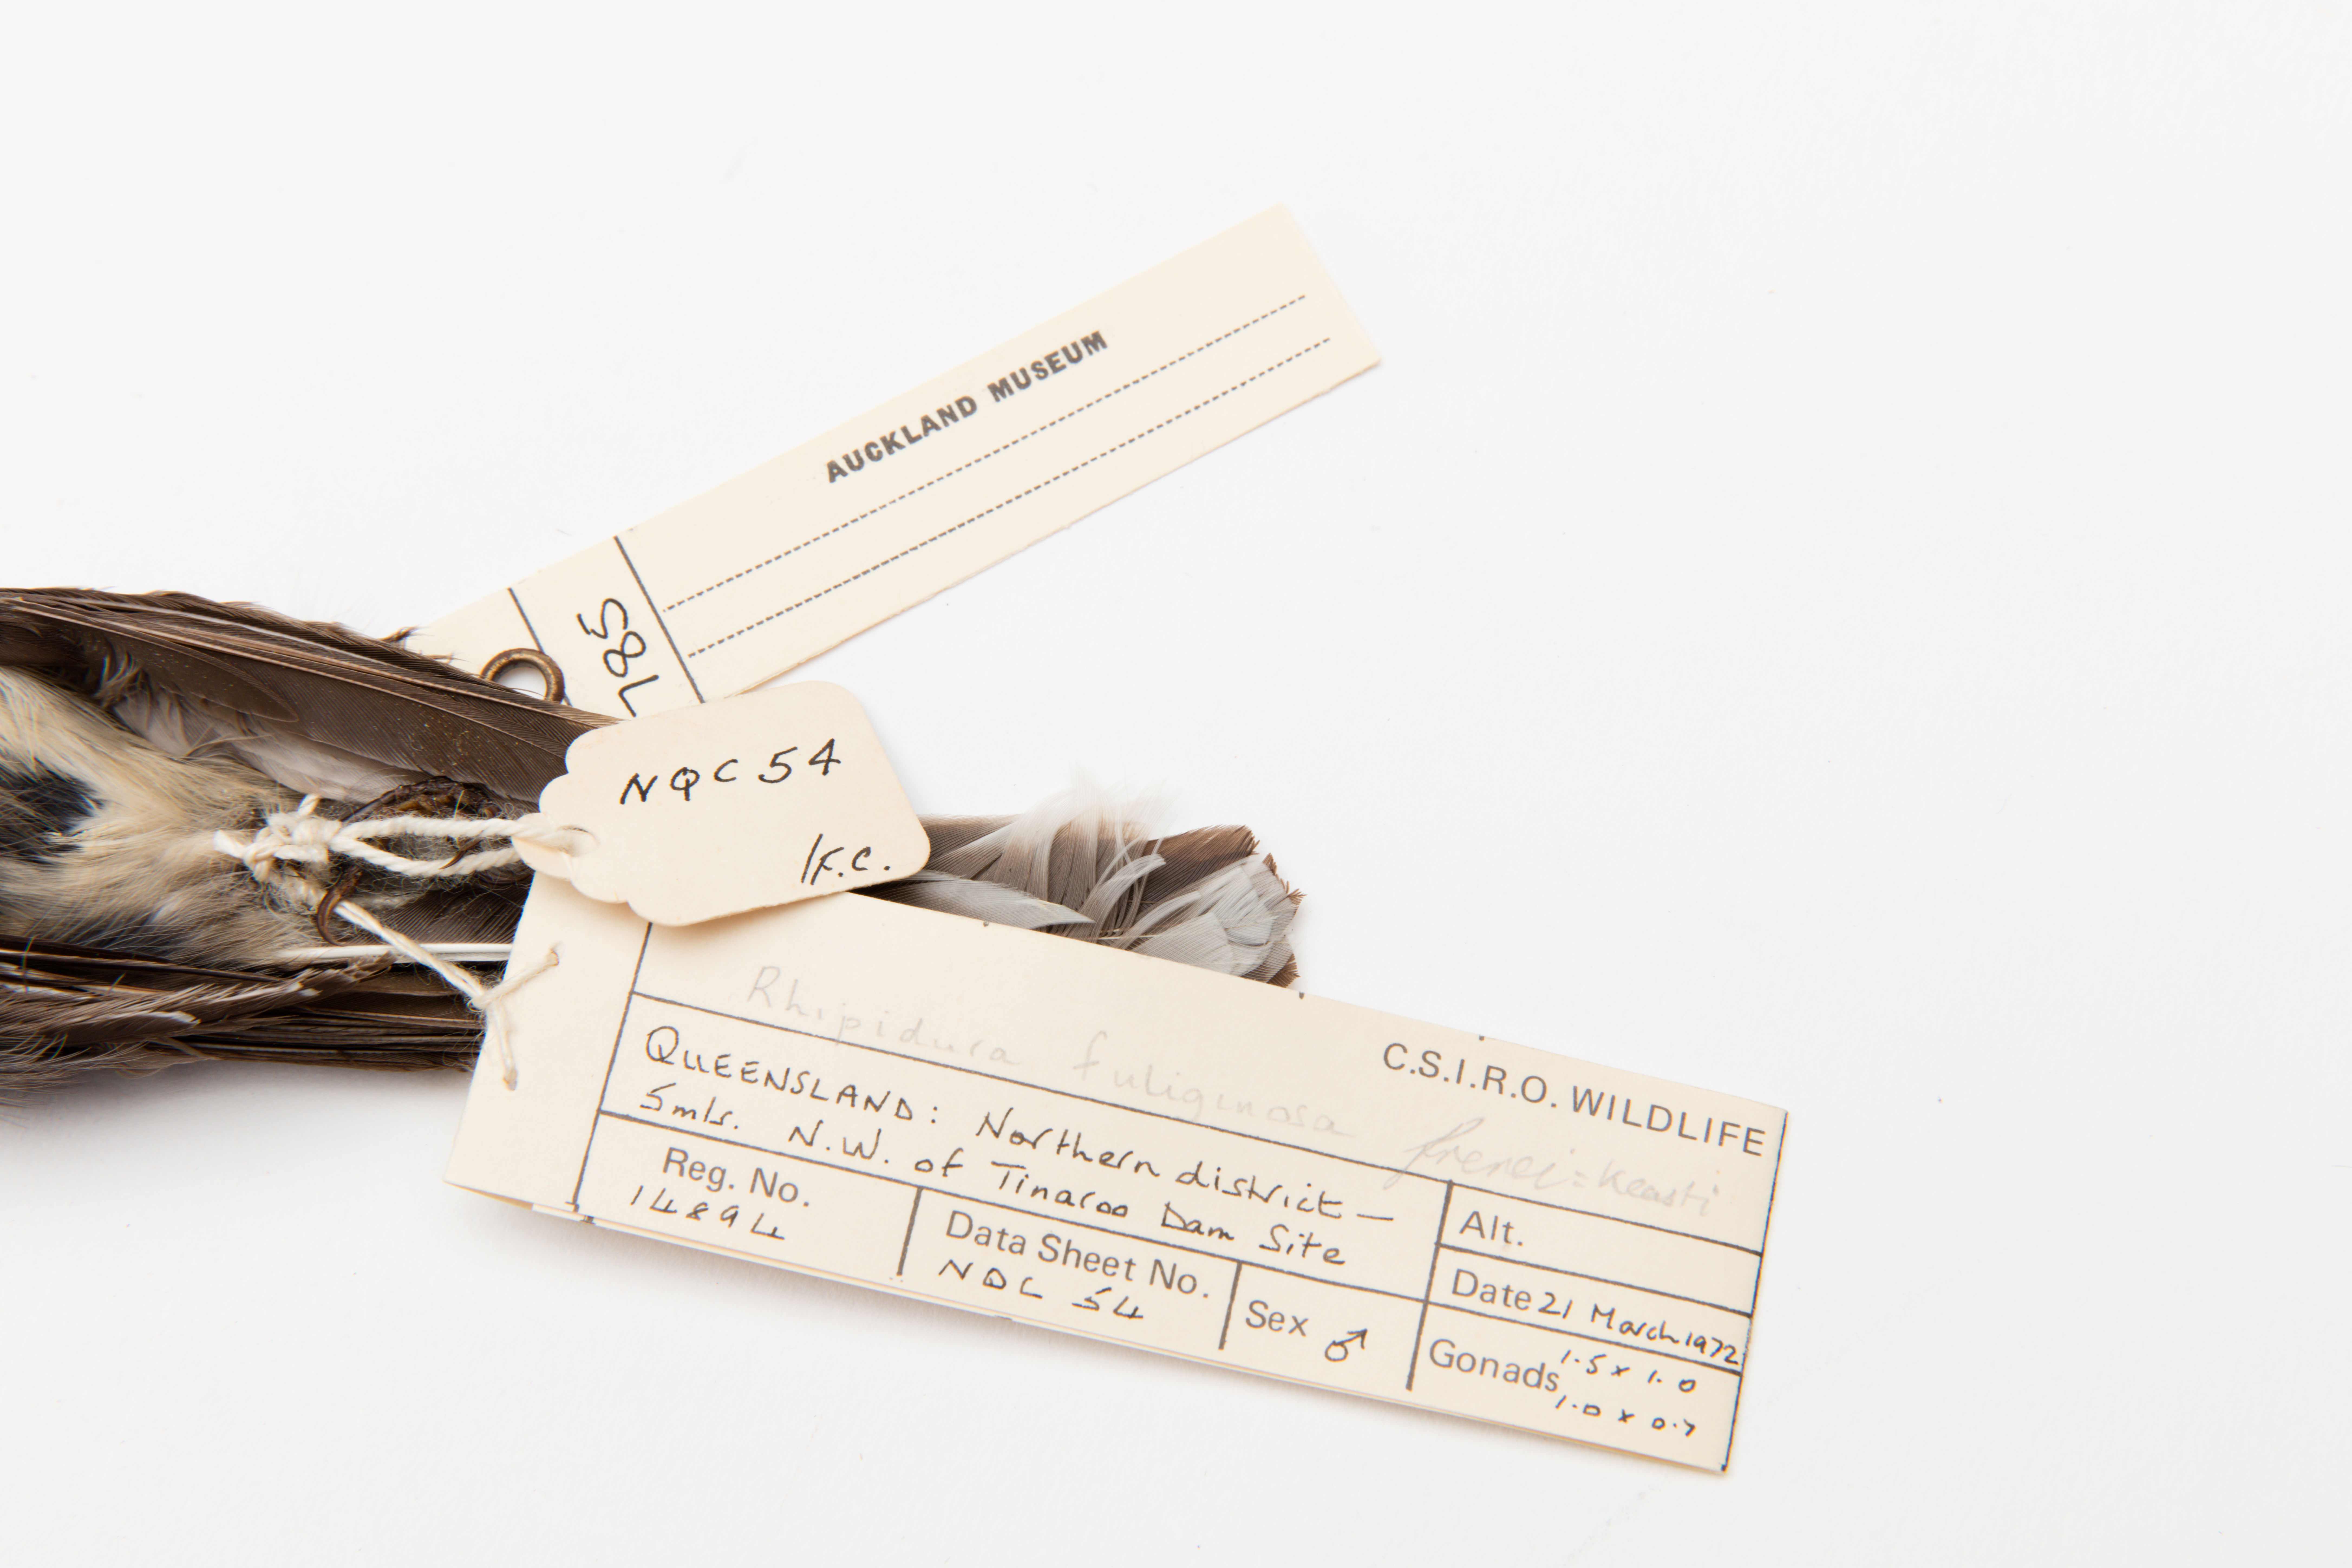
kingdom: Animalia
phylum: Chordata
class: Aves
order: Passeriformes
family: Rhipiduridae
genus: Rhipidura
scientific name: Rhipidura fuliginosa
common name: New zealand fantail
